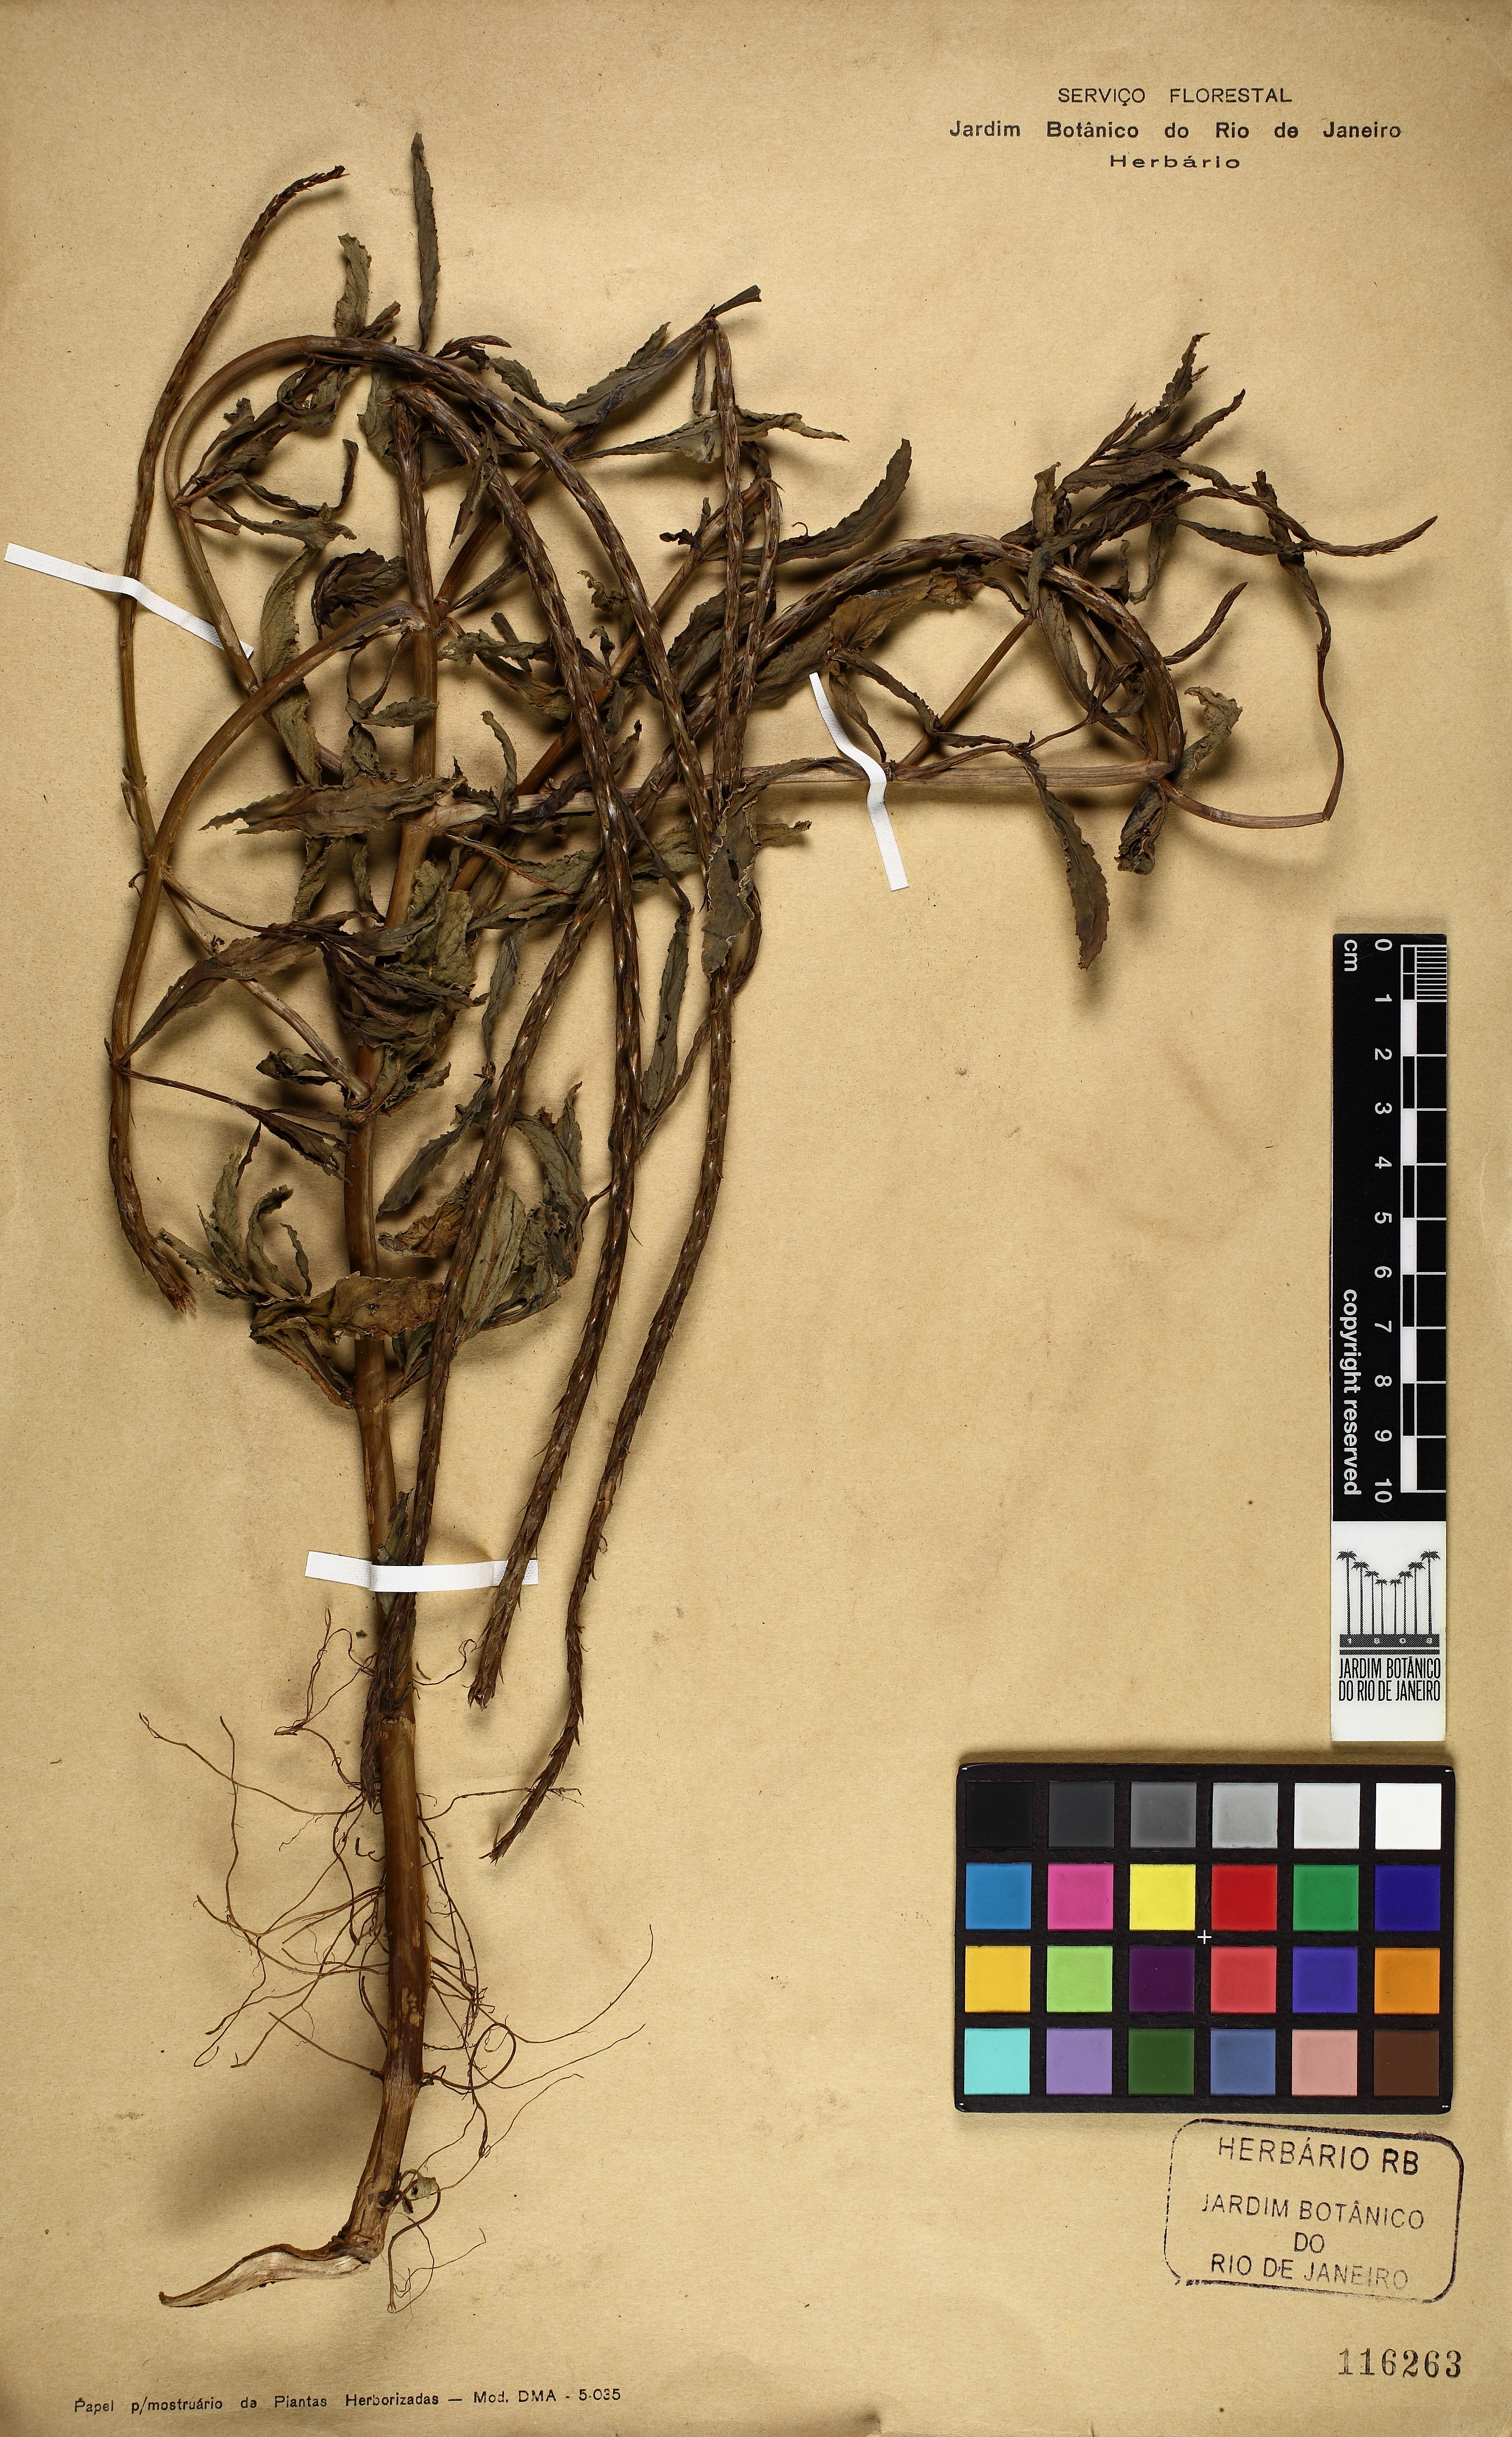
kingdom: Plantae
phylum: Tracheophyta
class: Magnoliopsida
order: Lamiales
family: Verbenaceae
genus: Stachytarpheta
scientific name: Stachytarpheta indica
